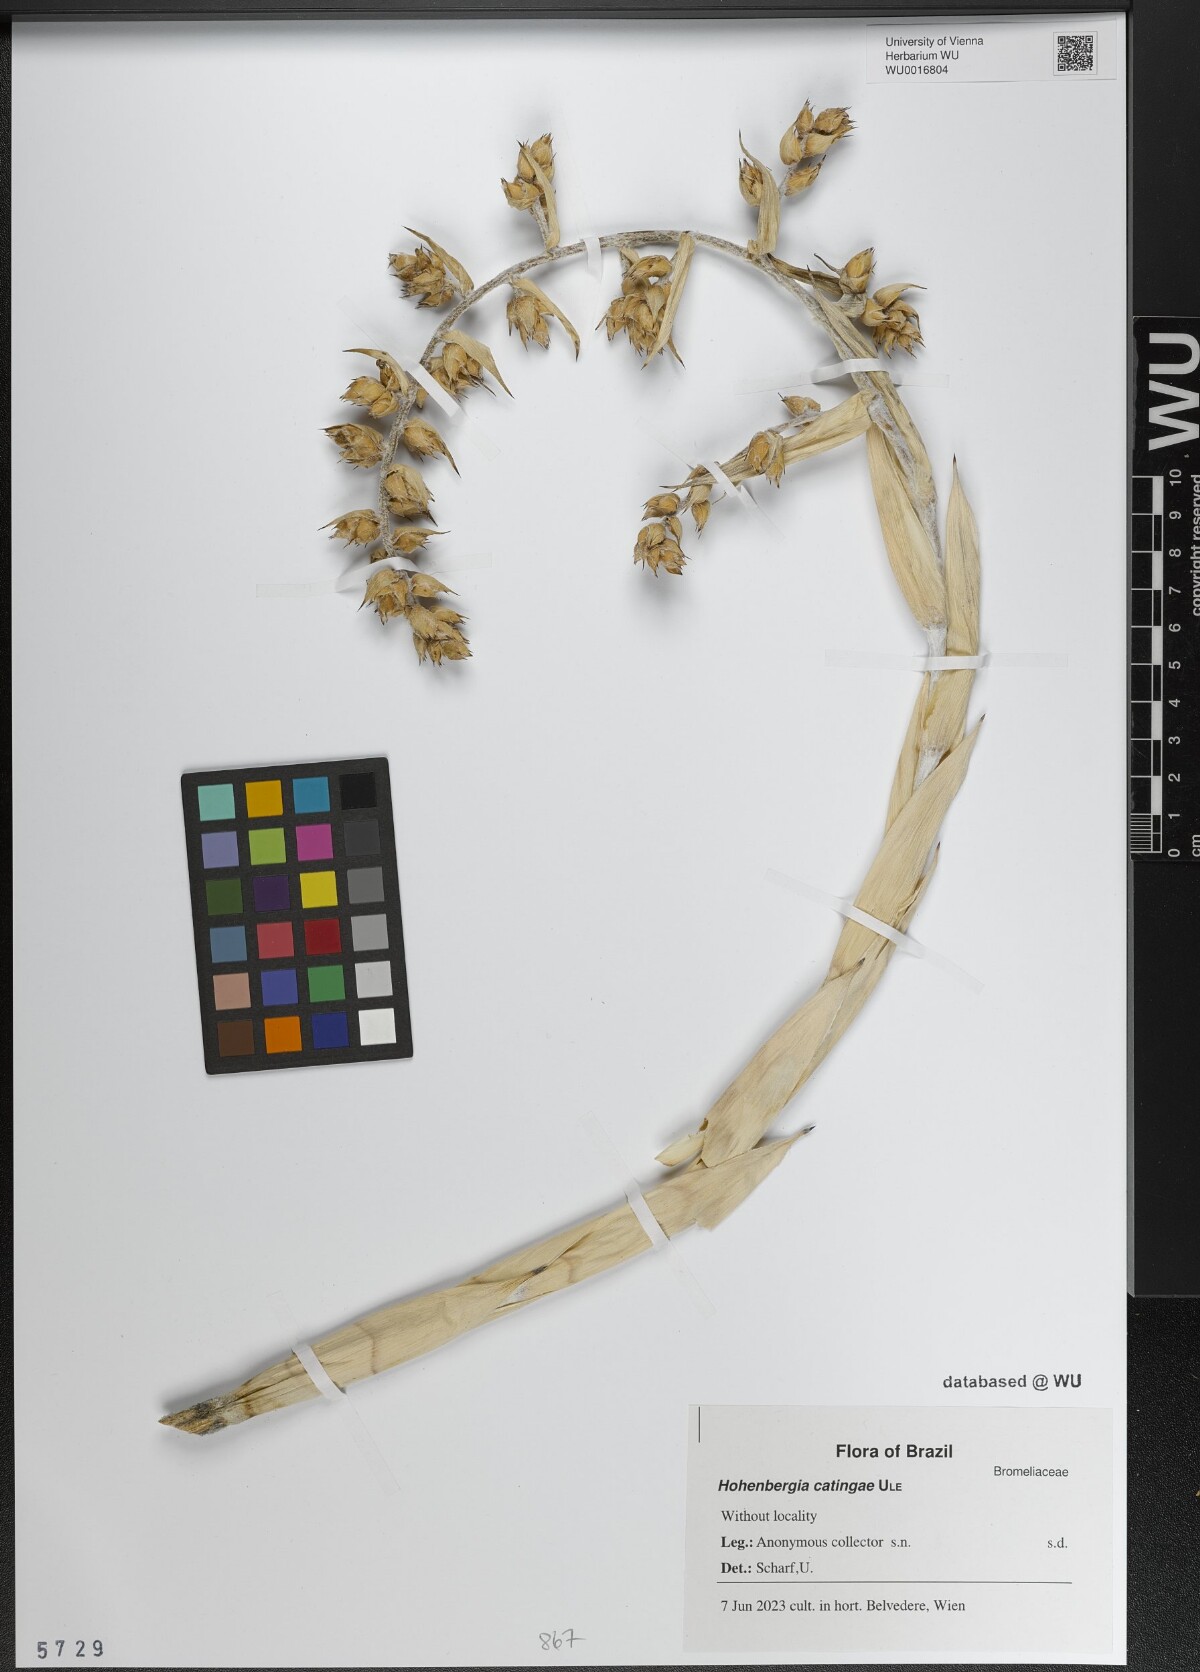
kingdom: Plantae
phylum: Tracheophyta
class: Liliopsida
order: Poales
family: Bromeliaceae
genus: Hohenbergia
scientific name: Hohenbergia catingae
